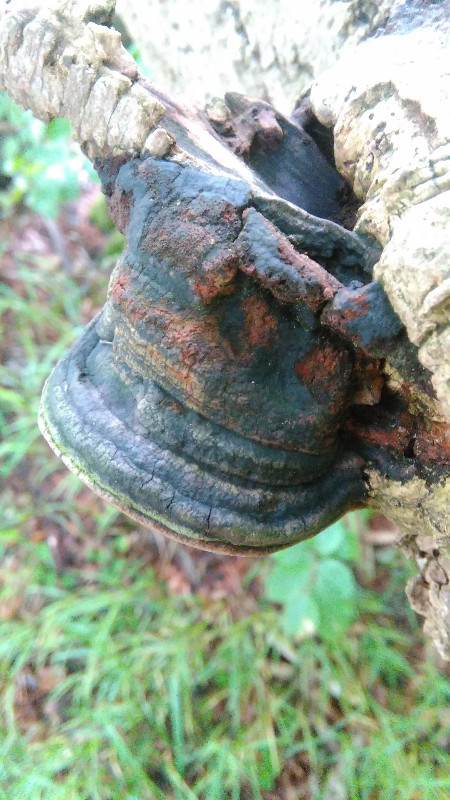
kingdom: Fungi
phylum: Basidiomycota
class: Agaricomycetes
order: Hymenochaetales
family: Hymenochaetaceae
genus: Phellinus
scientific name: Phellinus tremulae
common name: aspe-ildporesvamp
